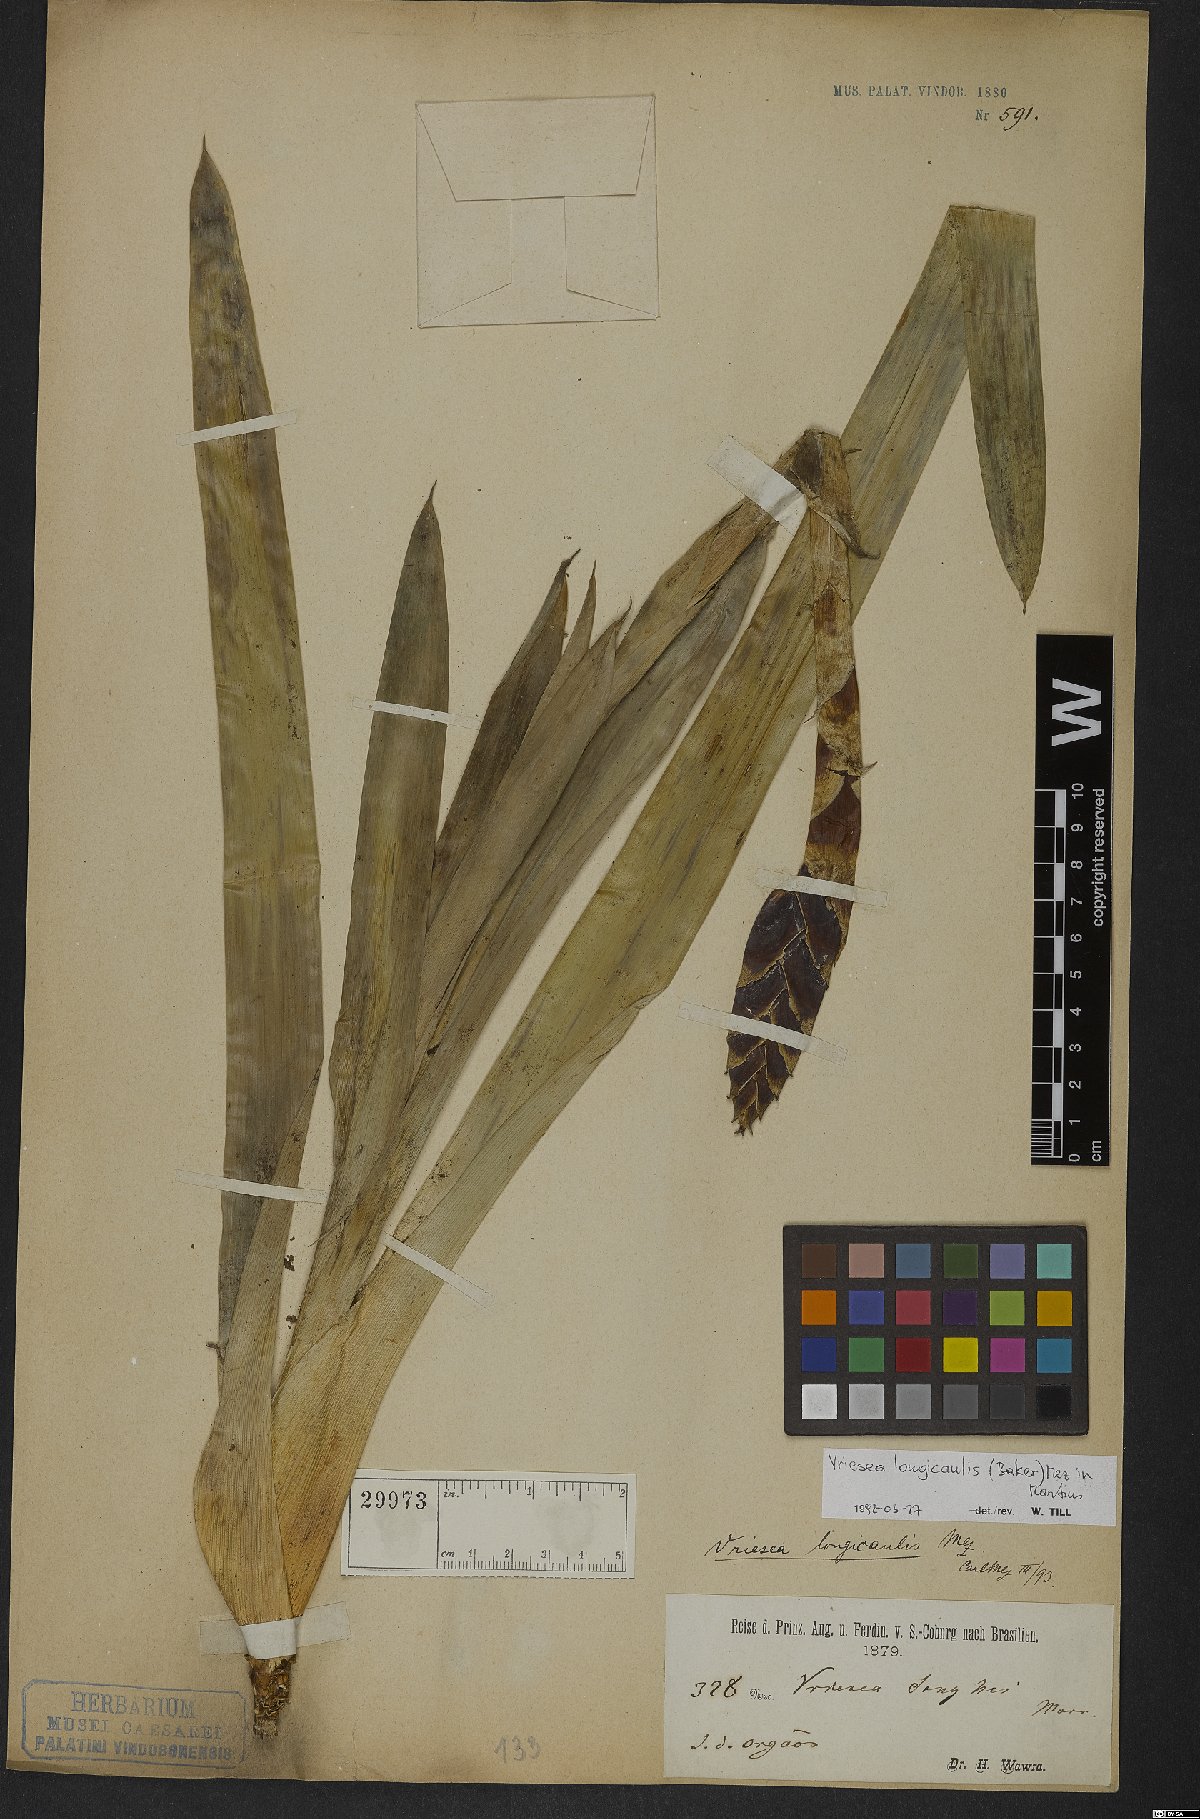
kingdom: Plantae
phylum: Tracheophyta
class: Liliopsida
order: Poales
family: Bromeliaceae
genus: Vriesea
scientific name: Vriesea longicaulis
